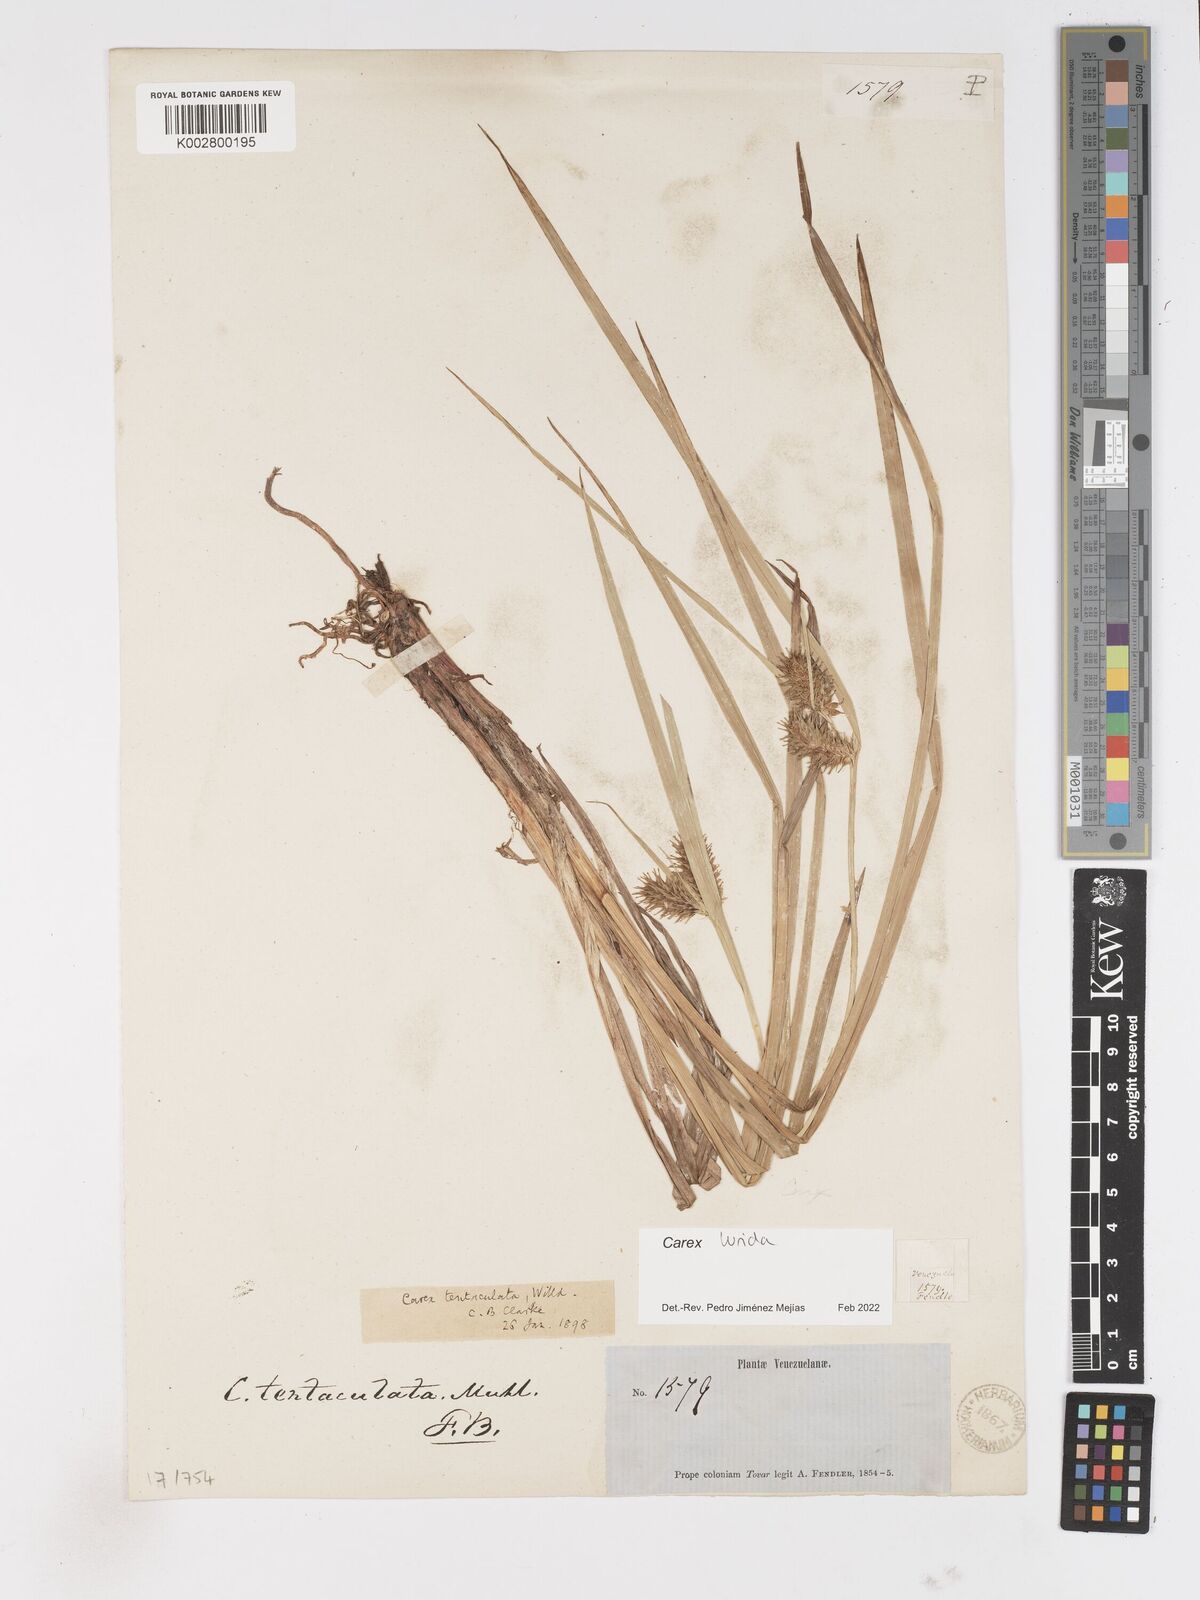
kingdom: Plantae
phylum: Tracheophyta
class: Liliopsida
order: Poales
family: Cyperaceae
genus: Carex
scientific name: Carex
